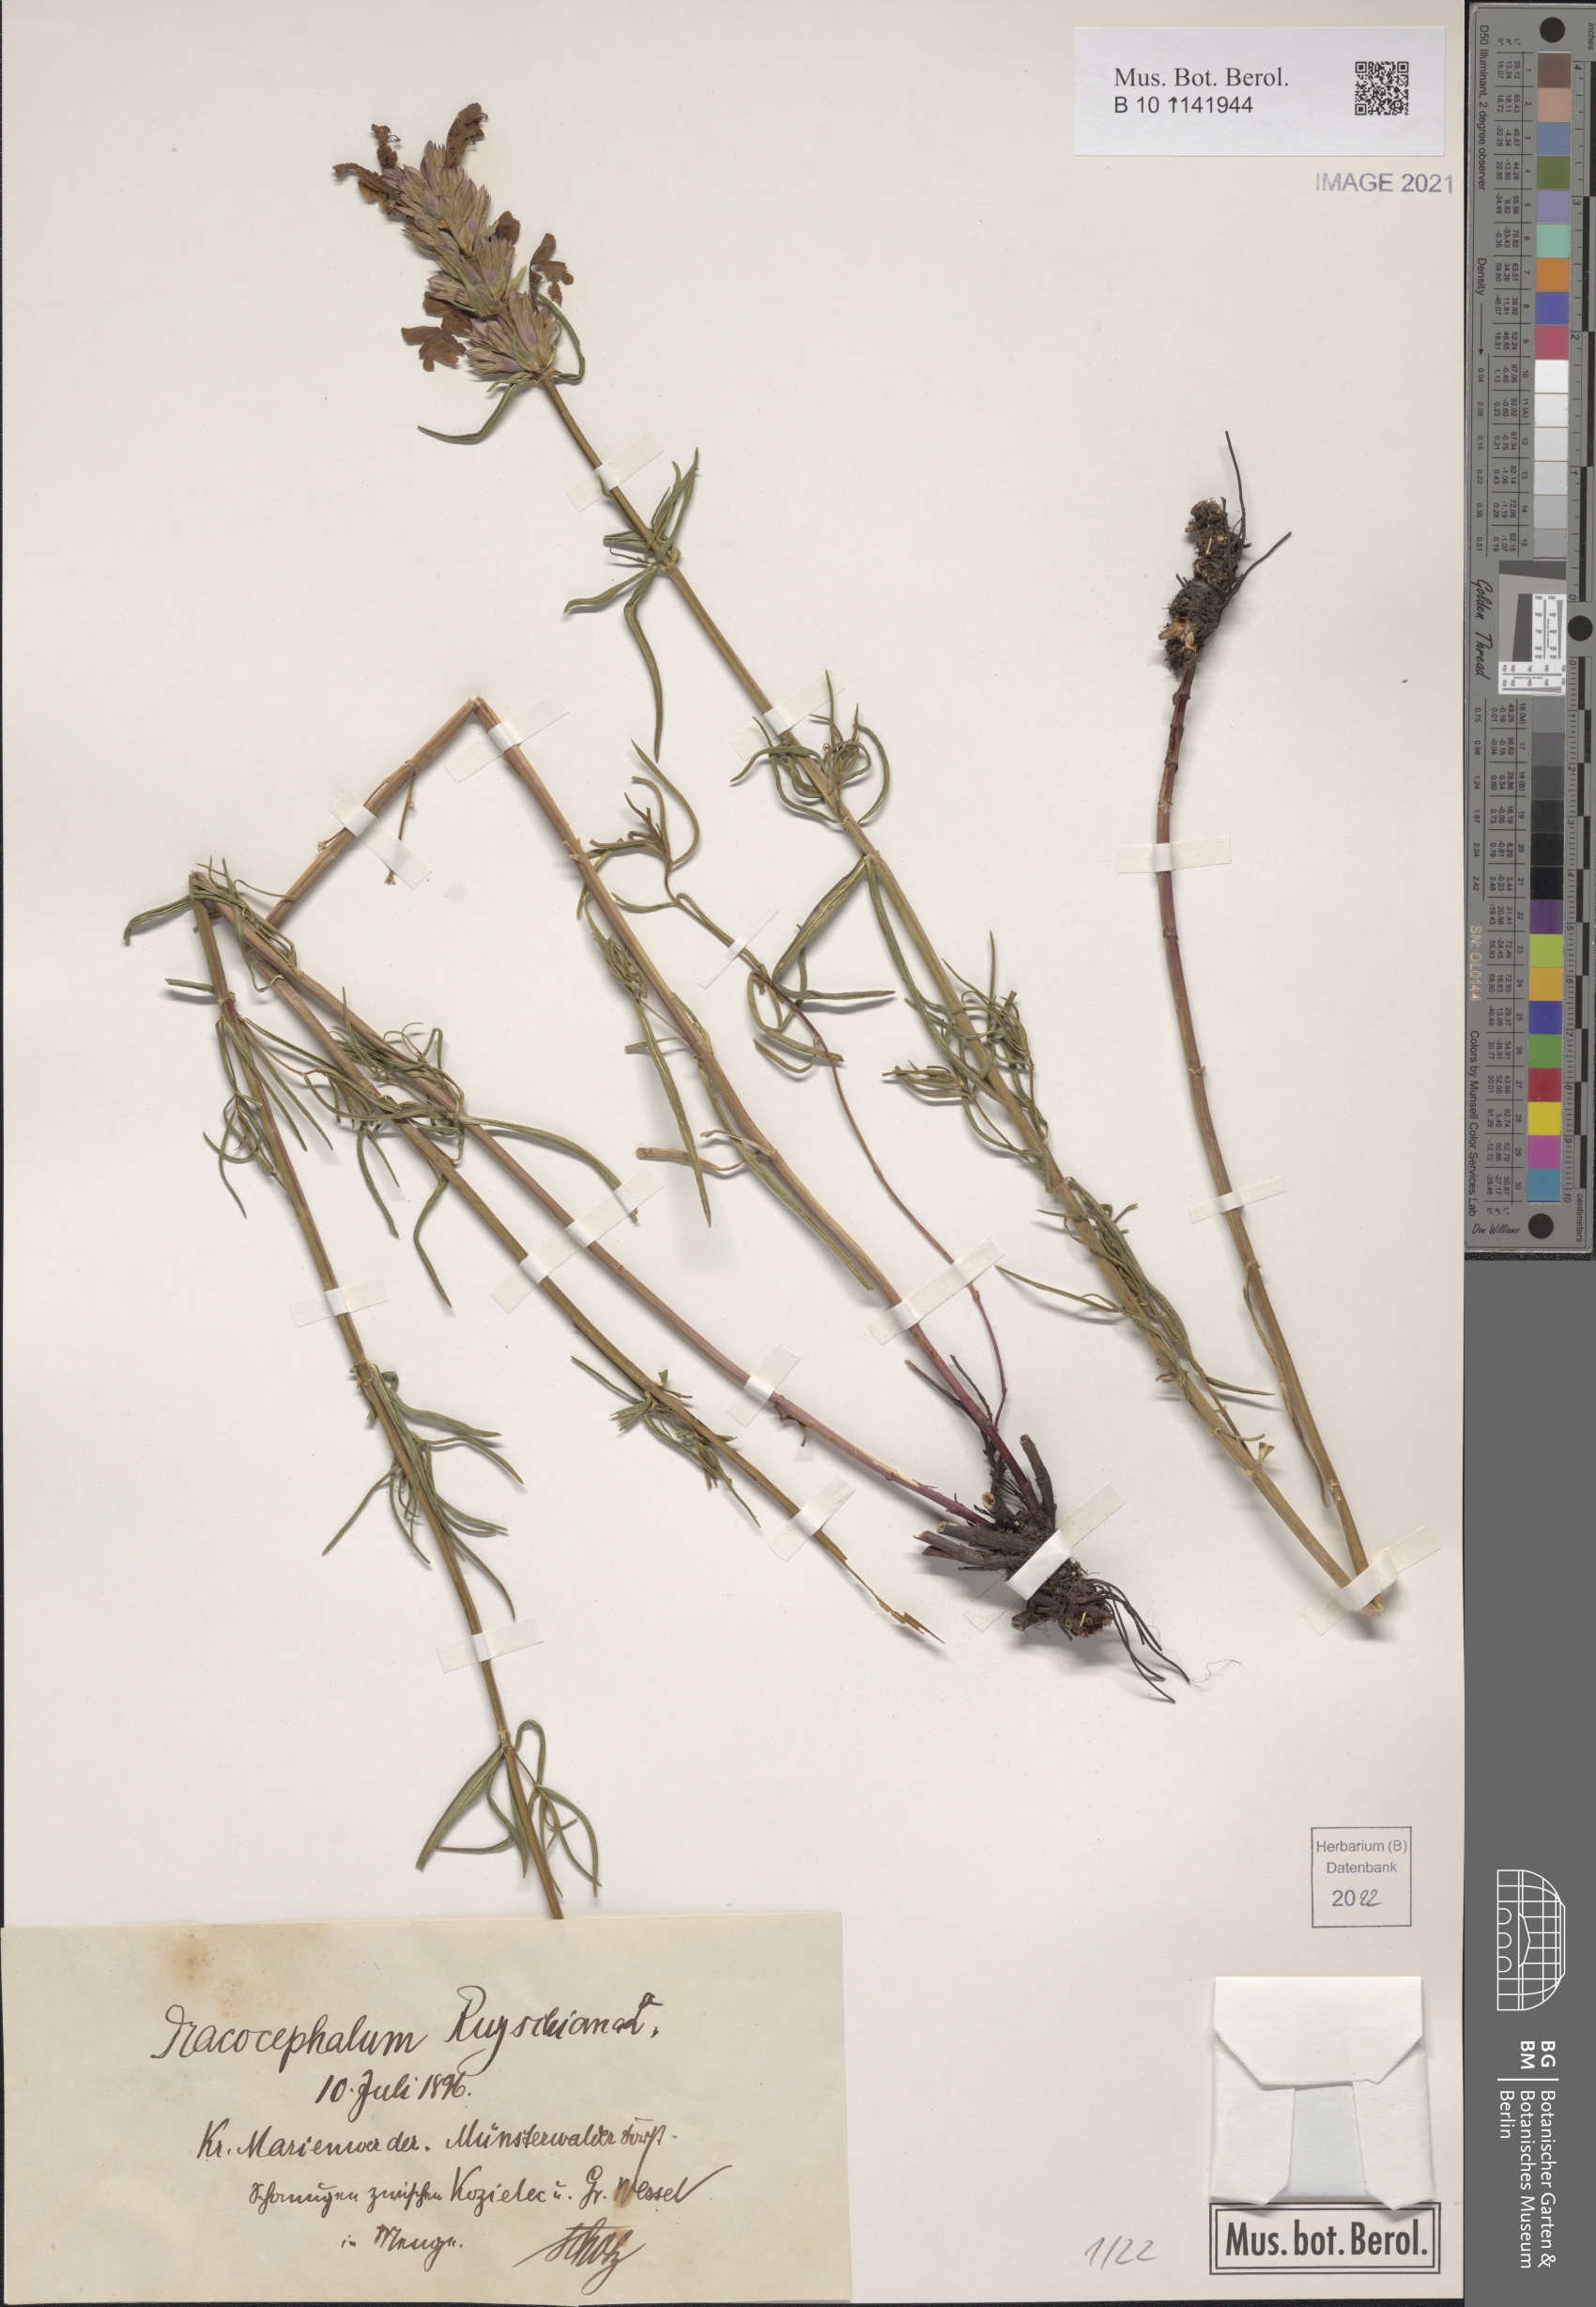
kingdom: Plantae
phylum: Tracheophyta
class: Magnoliopsida
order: Lamiales
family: Lamiaceae
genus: Dracocephalum
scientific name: Dracocephalum ruyschiana
